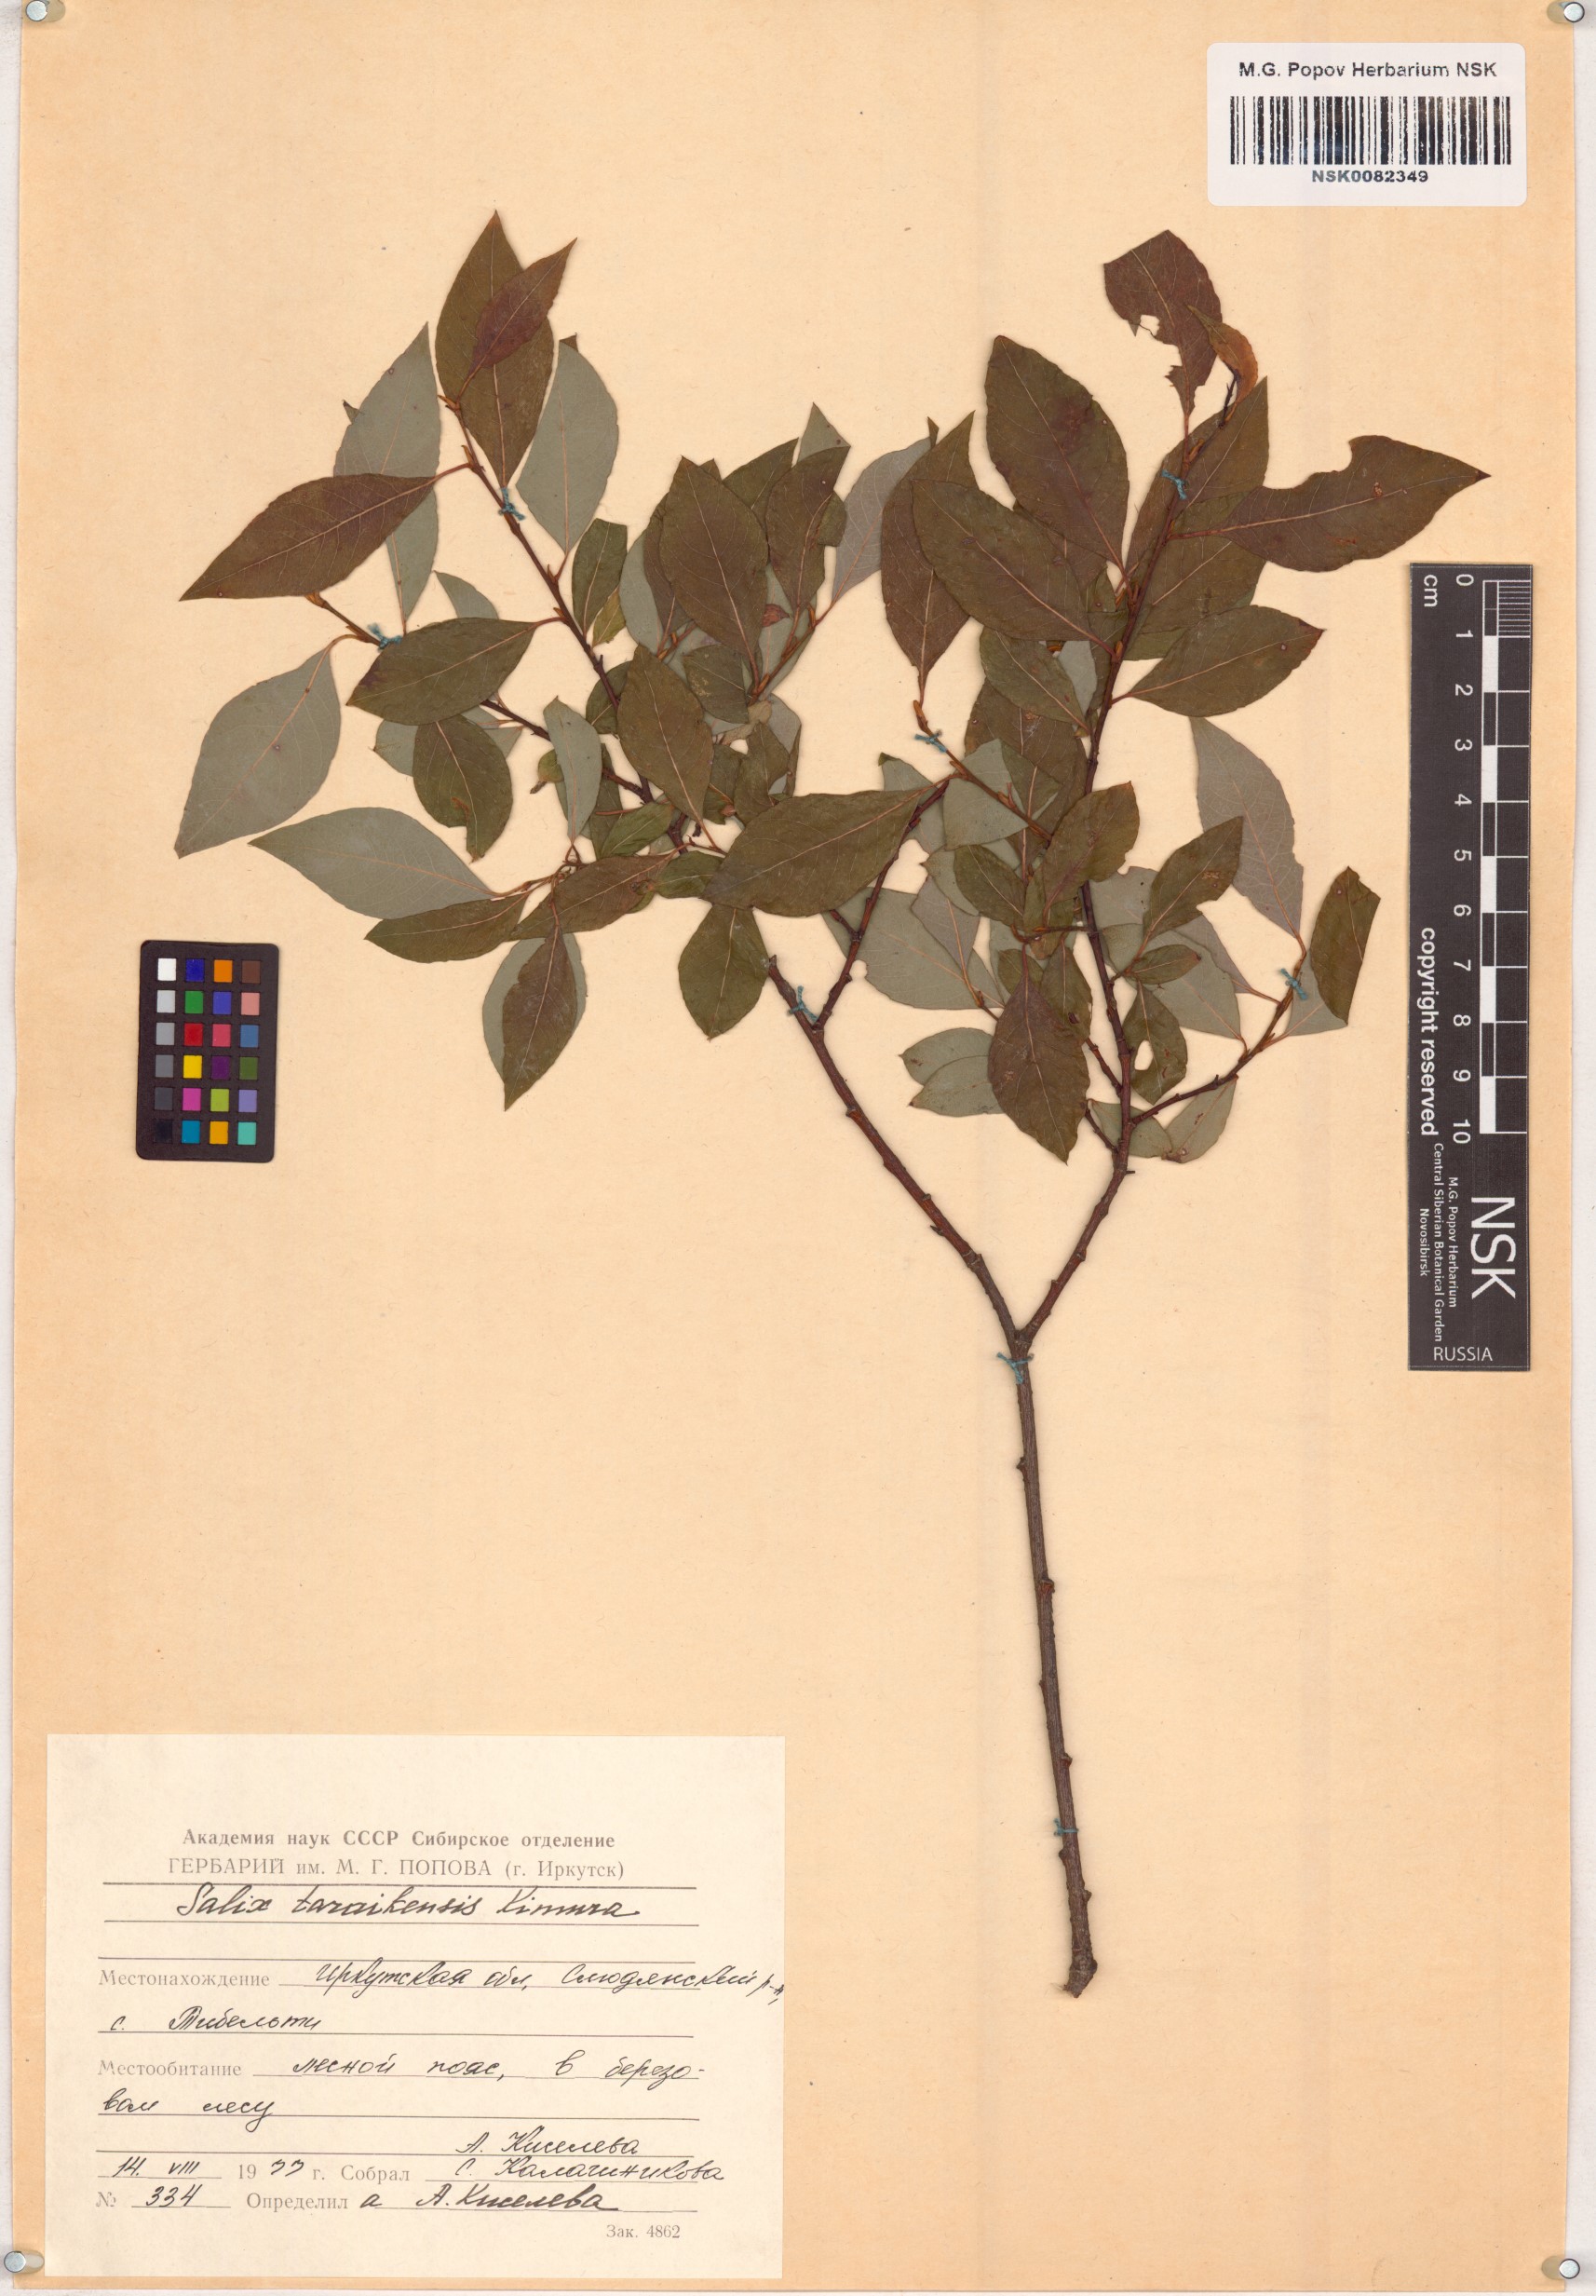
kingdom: Plantae
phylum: Tracheophyta
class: Magnoliopsida
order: Malpighiales
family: Salicaceae
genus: Salix
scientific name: Salix taraikensis
